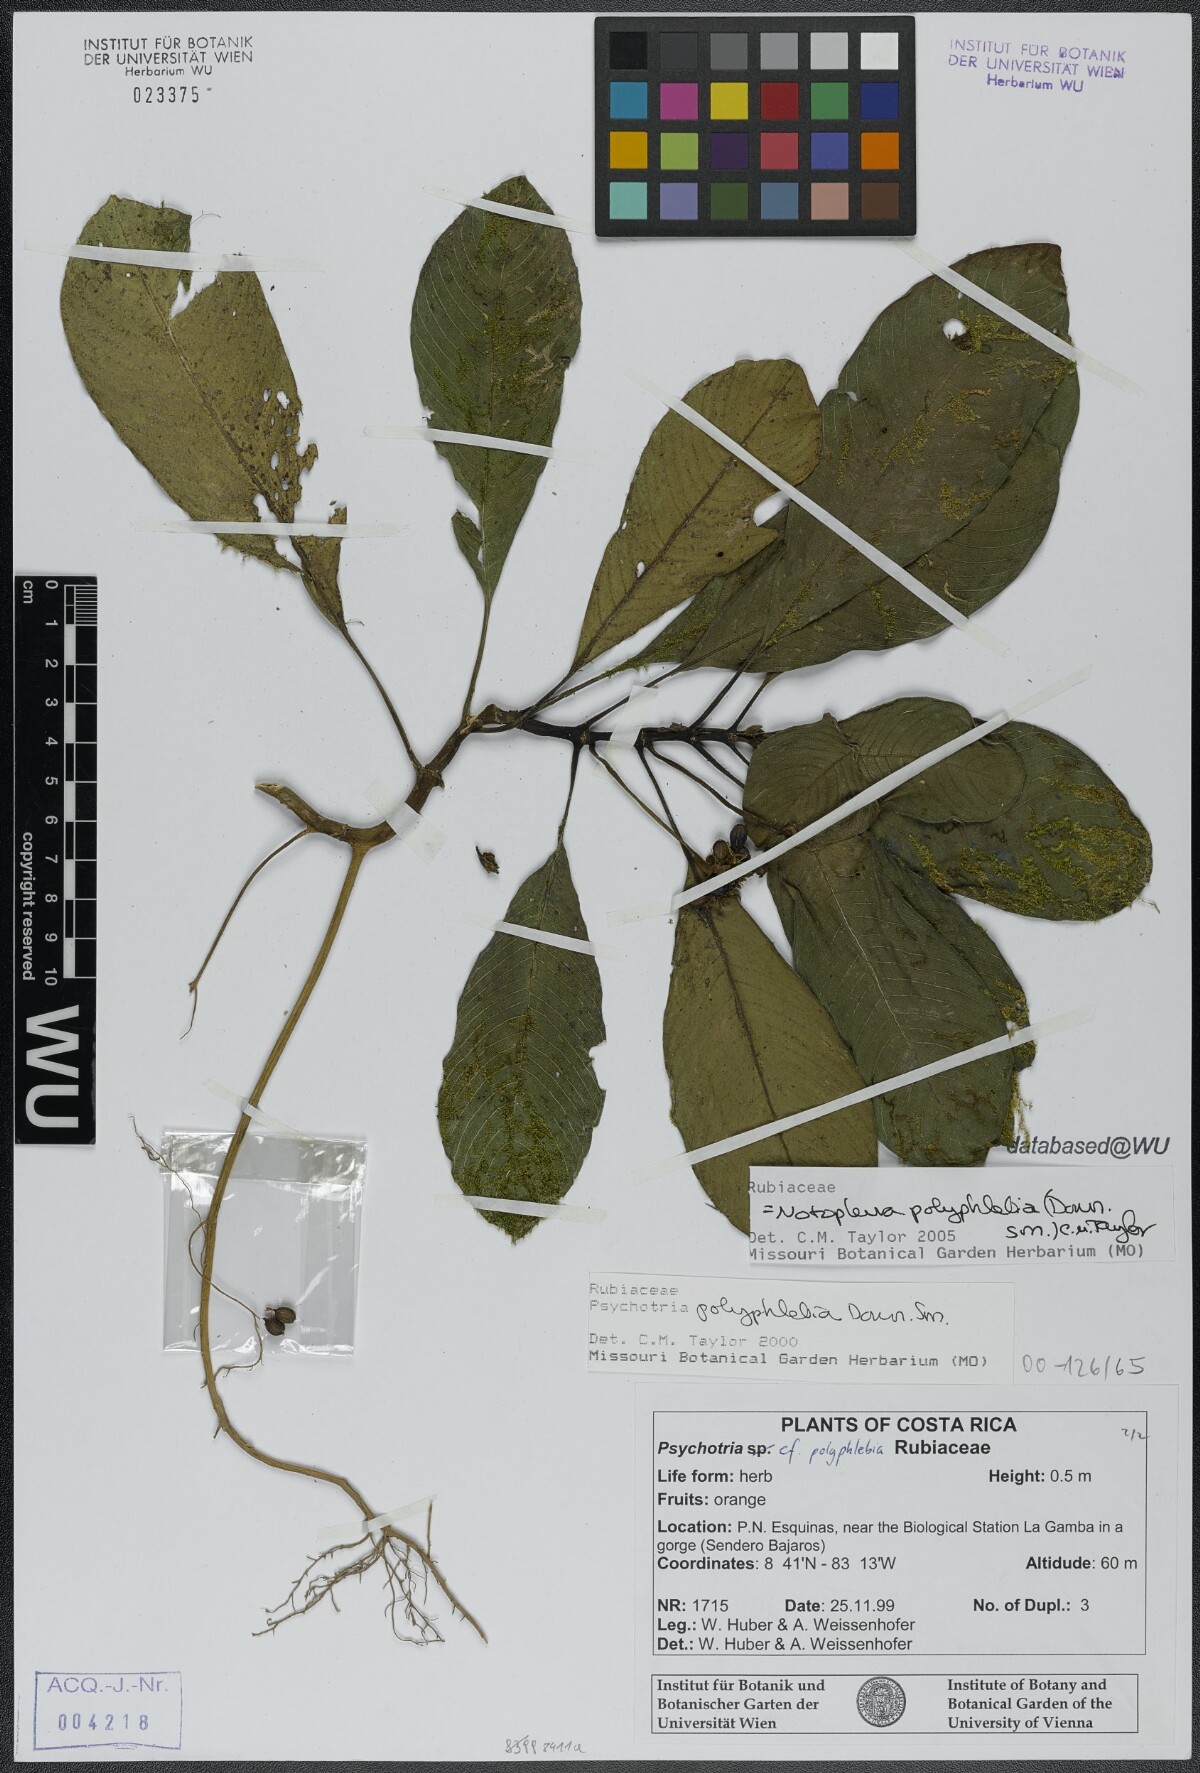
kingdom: Plantae
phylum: Tracheophyta
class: Magnoliopsida
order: Gentianales
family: Rubiaceae
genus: Notopleura
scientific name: Notopleura polyphlebia
